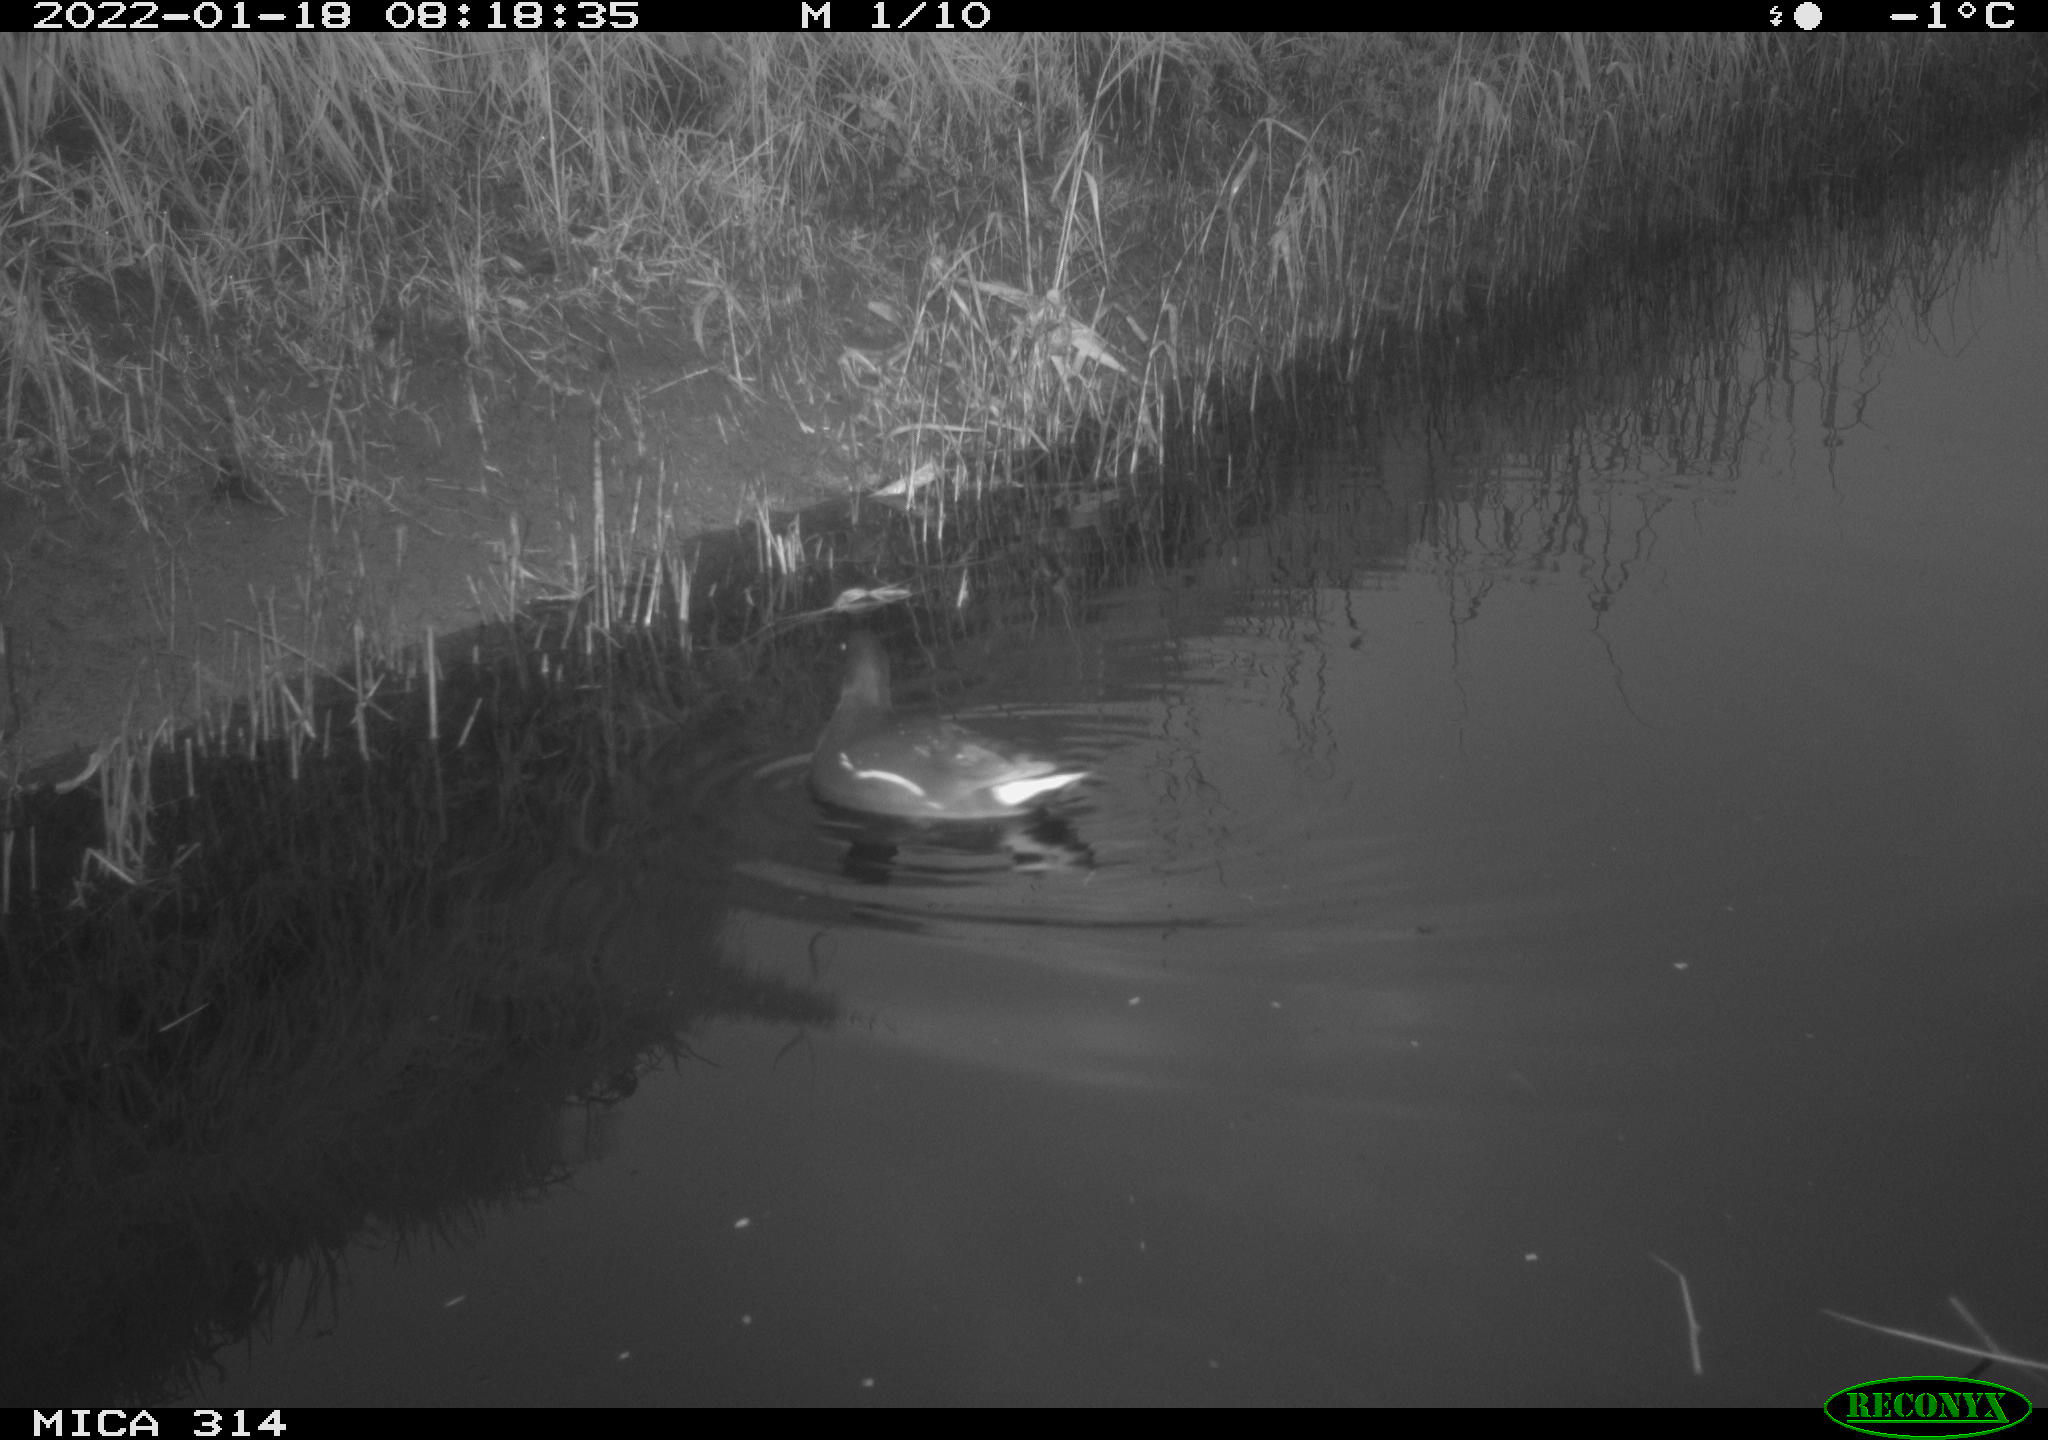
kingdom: Animalia
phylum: Chordata
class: Aves
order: Gruiformes
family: Rallidae
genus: Gallinula
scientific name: Gallinula chloropus
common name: Common moorhen
